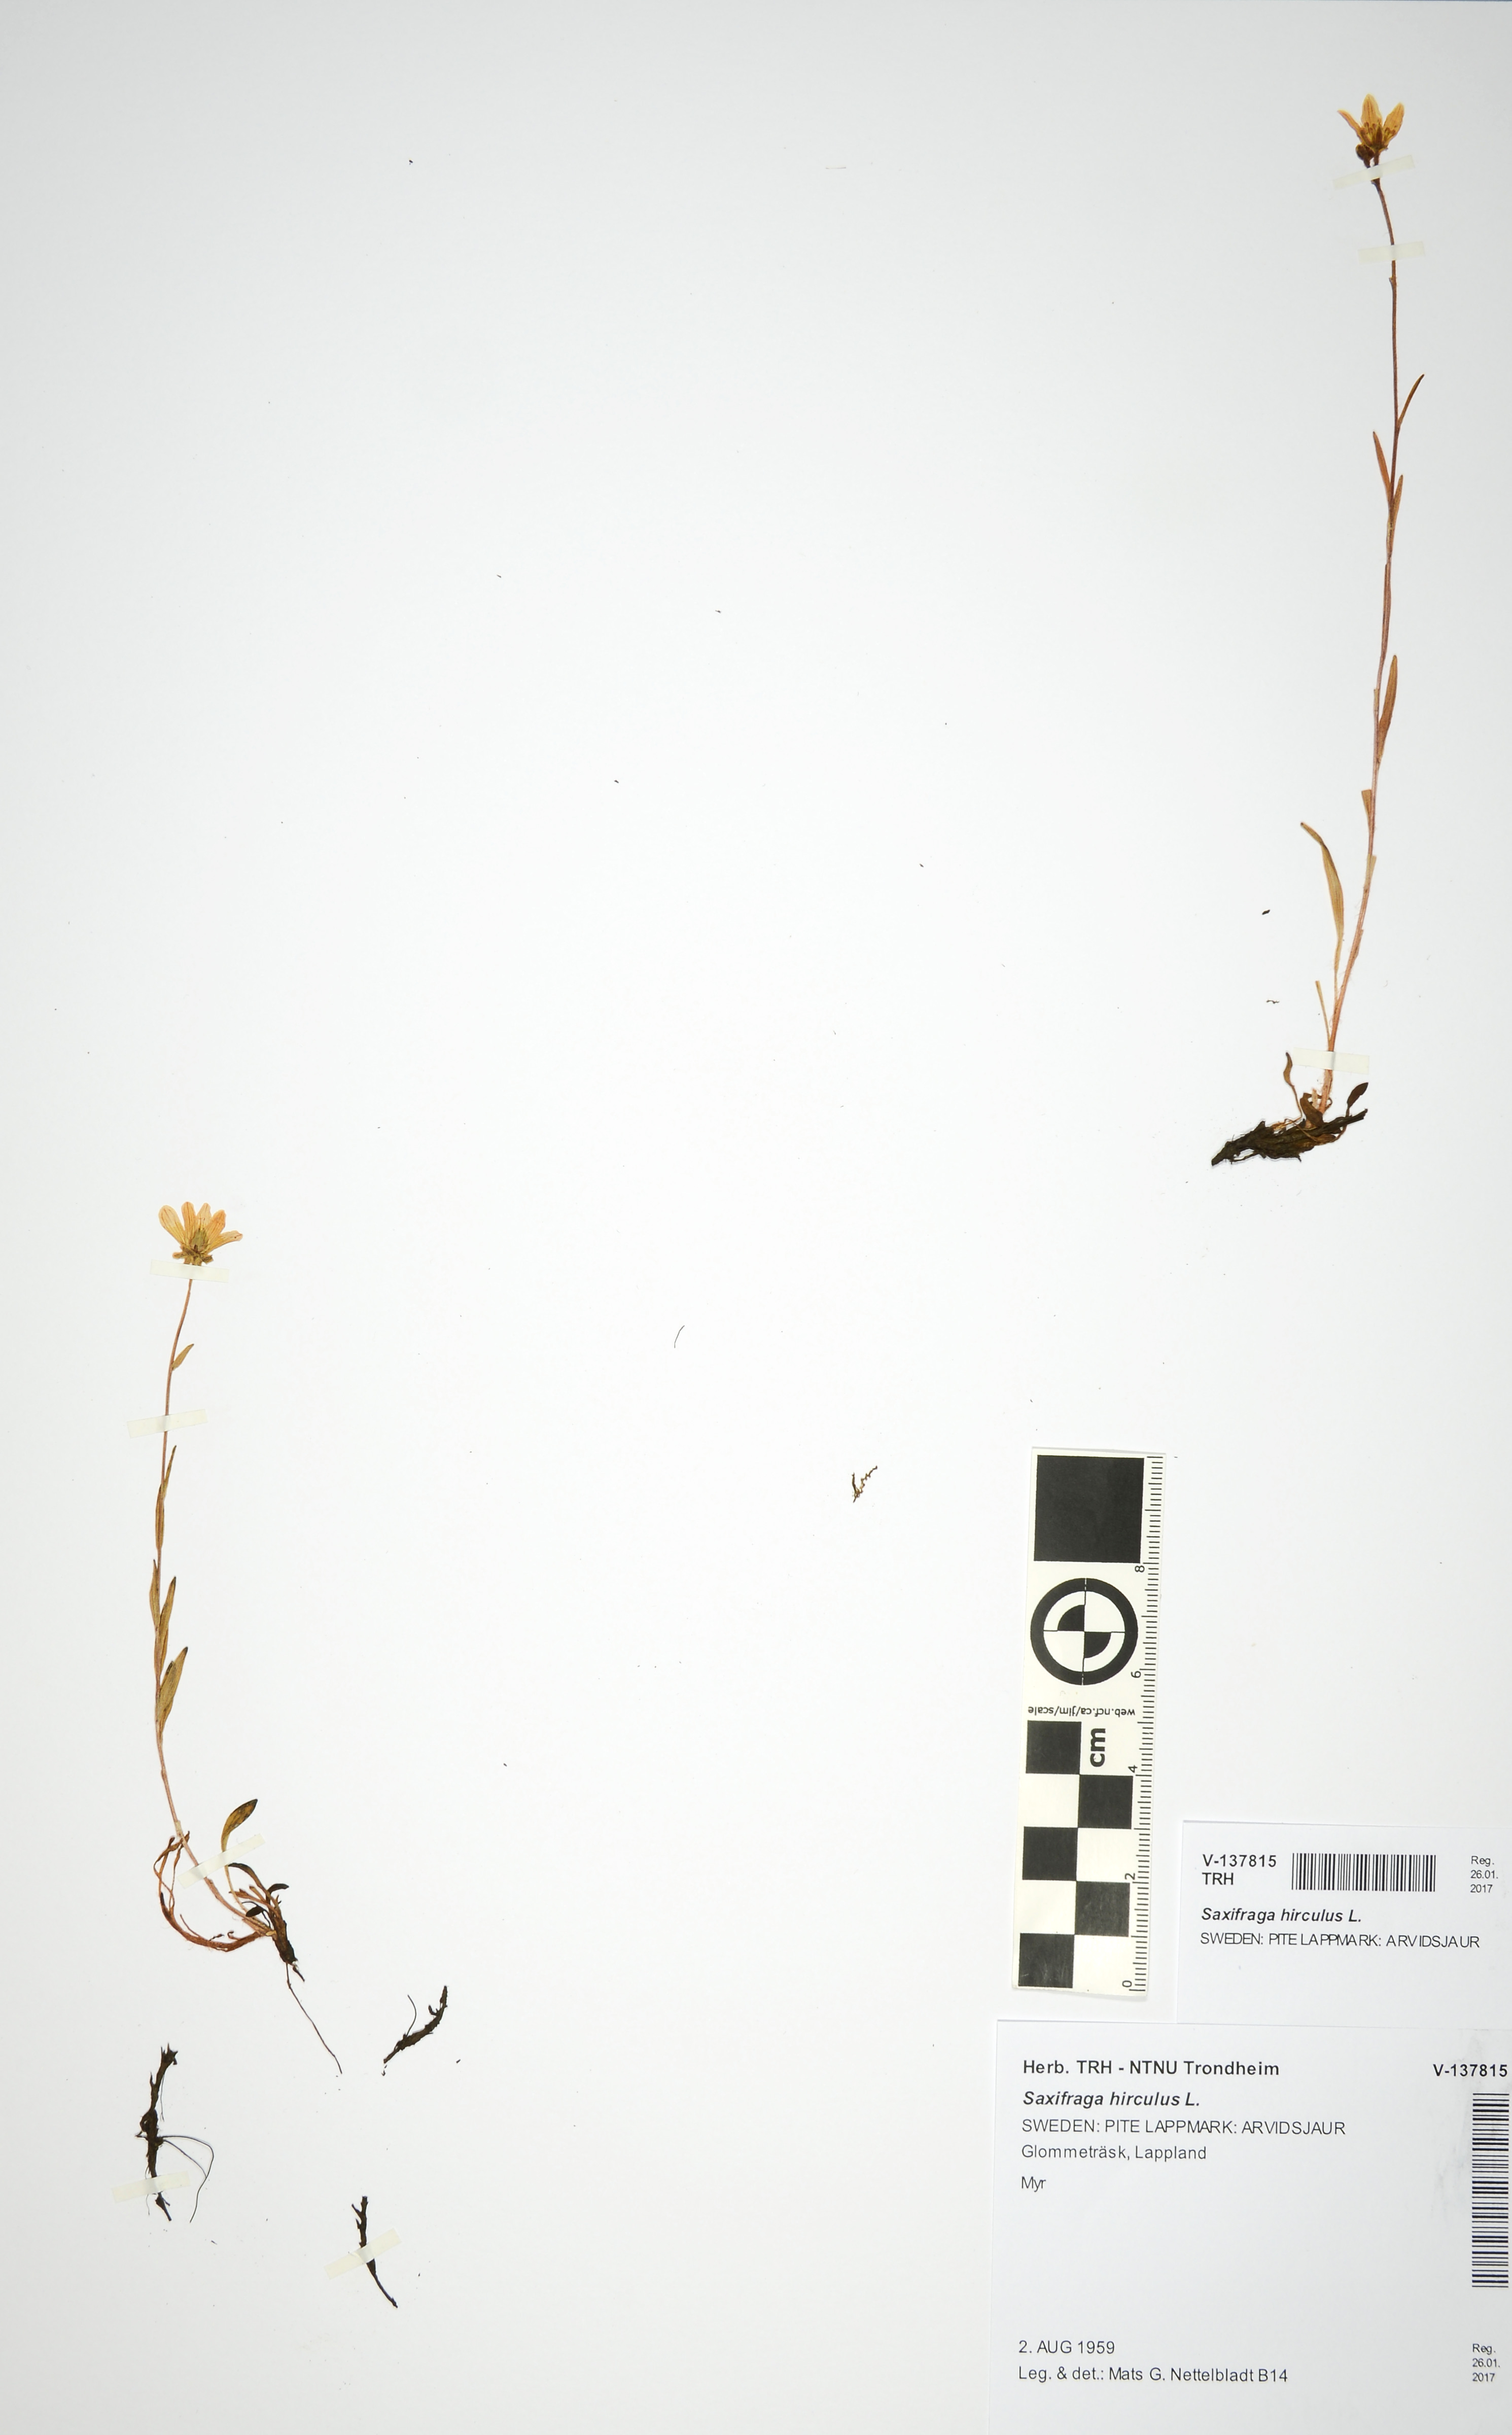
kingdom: Plantae
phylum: Tracheophyta
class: Magnoliopsida
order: Saxifragales
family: Saxifragaceae
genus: Saxifraga
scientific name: Saxifraga hirculus
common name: Yellow marsh saxifrage
